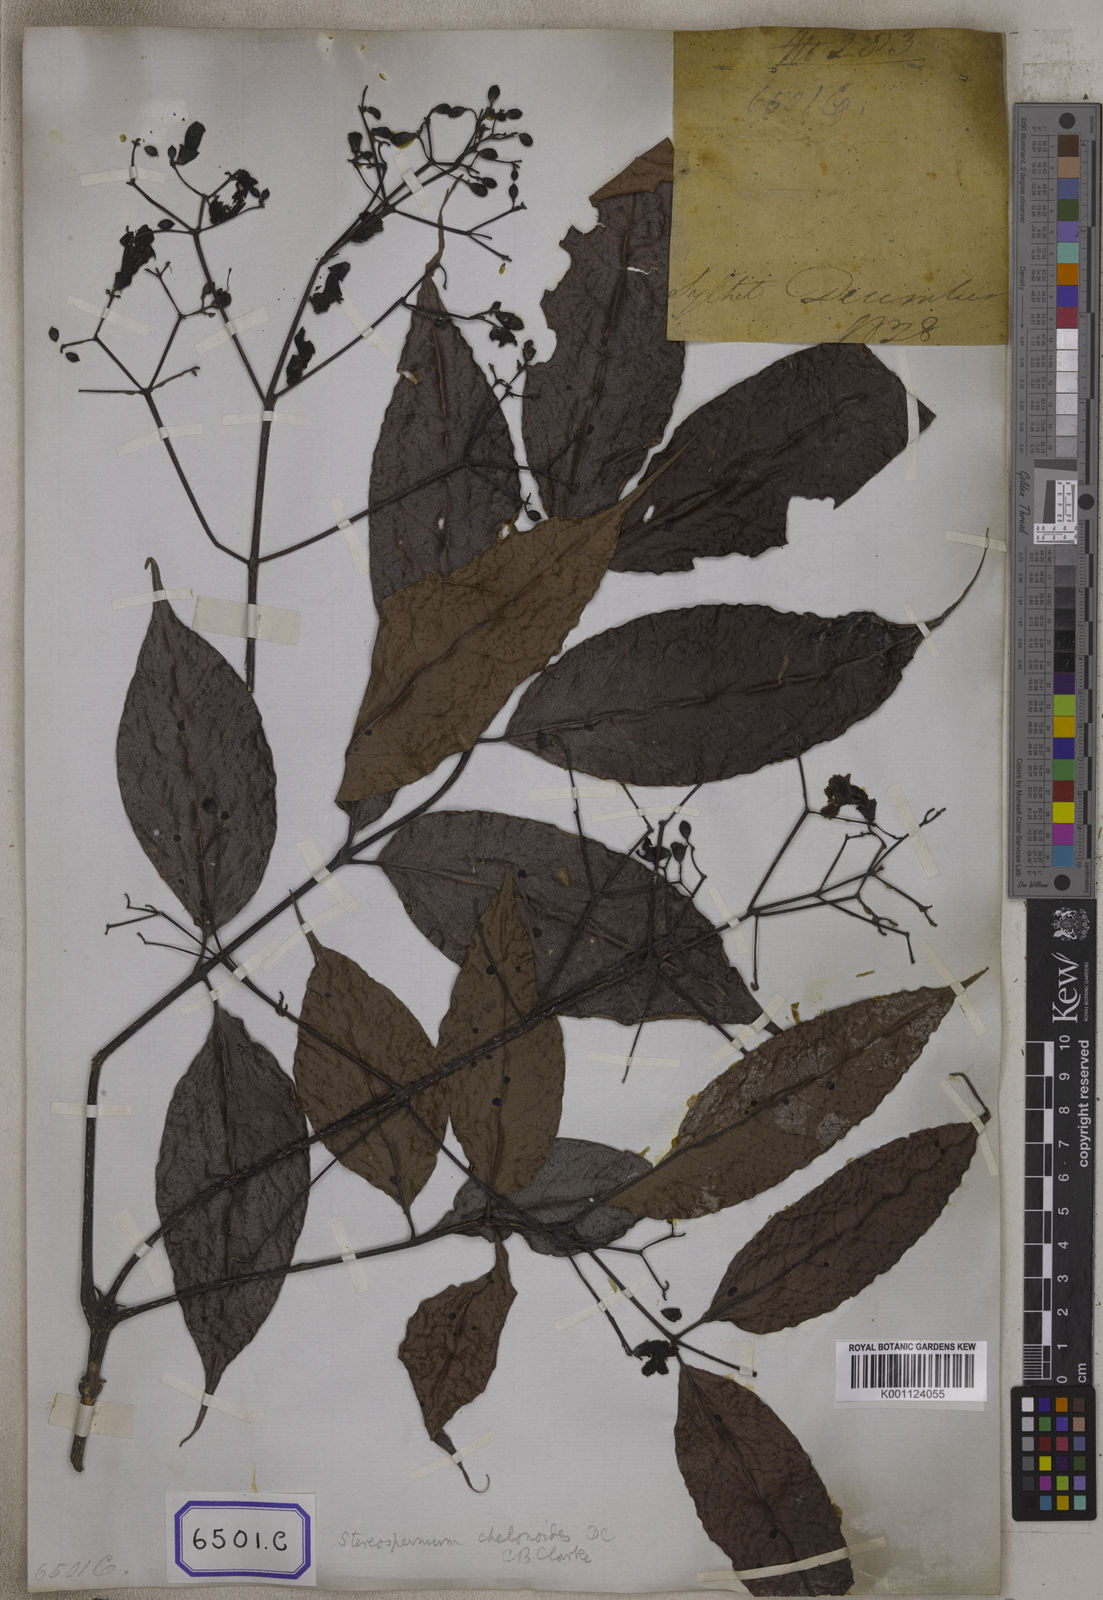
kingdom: Plantae
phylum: Tracheophyta
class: Magnoliopsida
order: Lamiales
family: Bignoniaceae
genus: Stereospermum
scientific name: Stereospermum chelonoides
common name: Fragrant padritree
